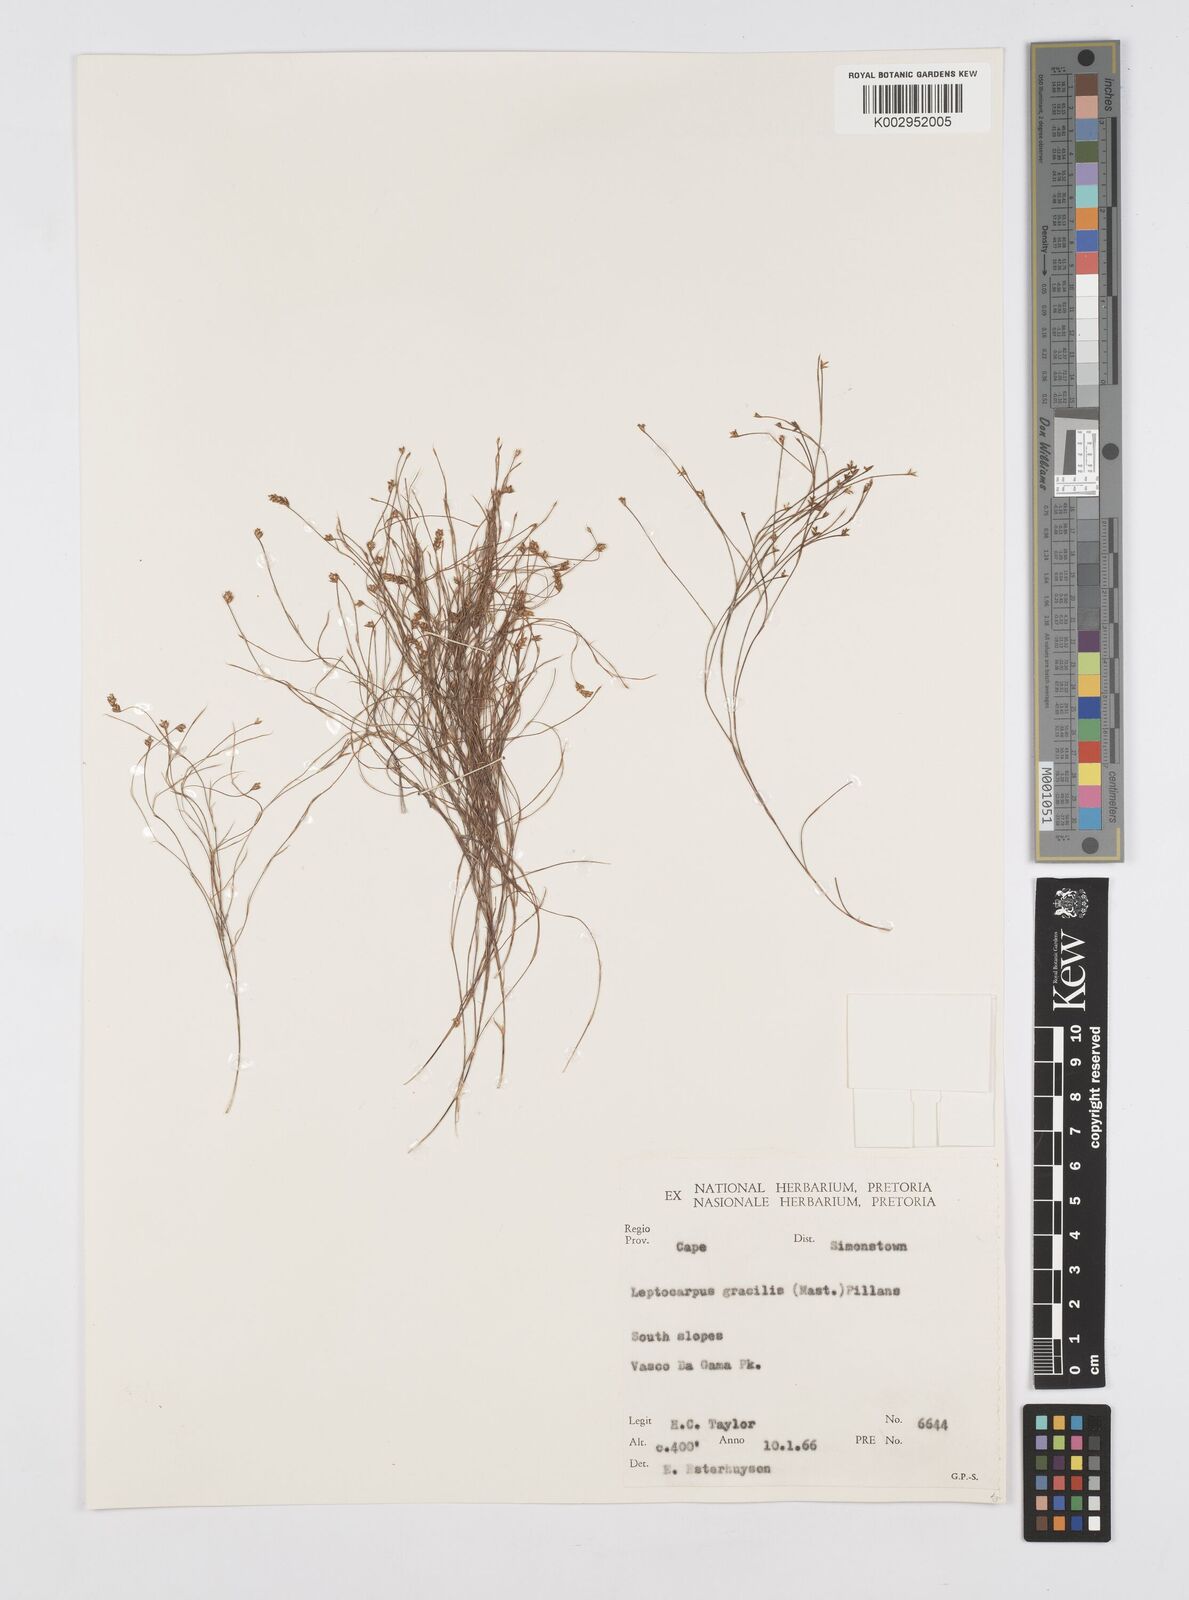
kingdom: Plantae
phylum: Tracheophyta
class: Liliopsida
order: Poales
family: Restionaceae
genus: Baloskion
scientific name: Baloskion gracile
